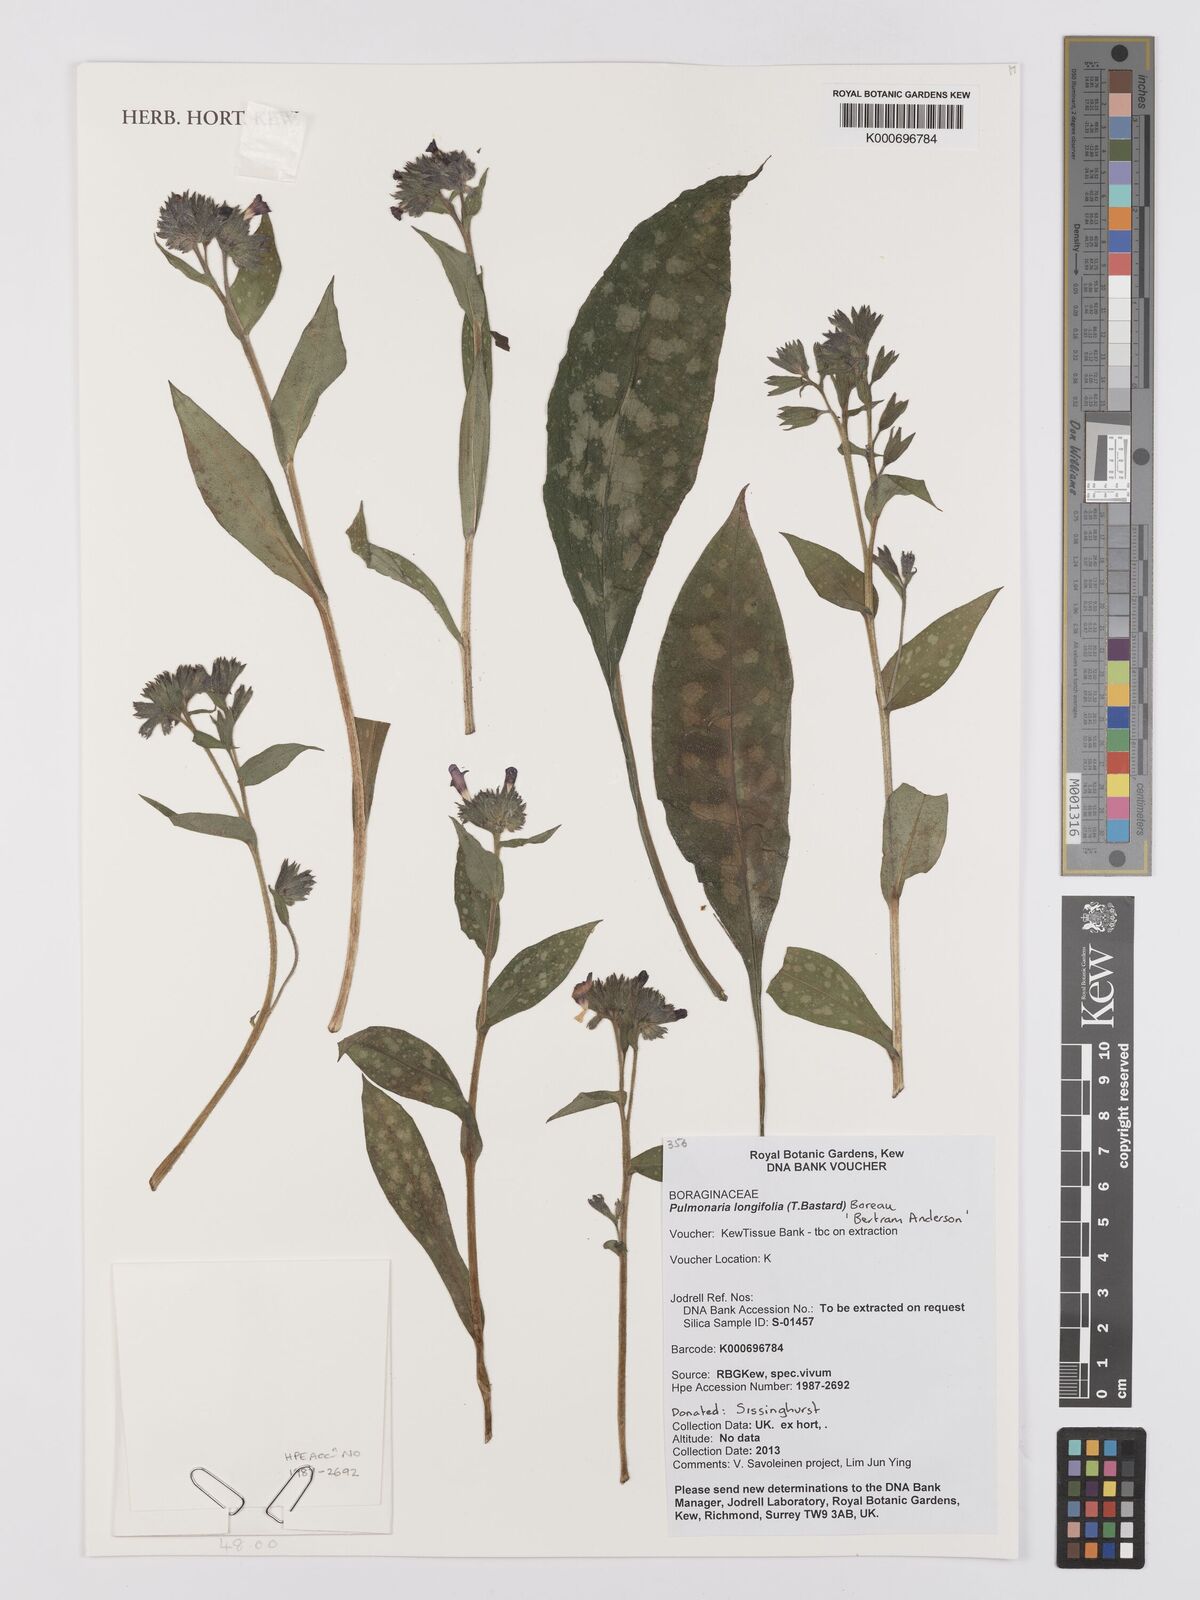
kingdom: Plantae
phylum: Tracheophyta
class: Magnoliopsida
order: Boraginales
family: Boraginaceae
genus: Pulmonaria
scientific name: Pulmonaria longifolia
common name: Narrow-leaved lungwort
